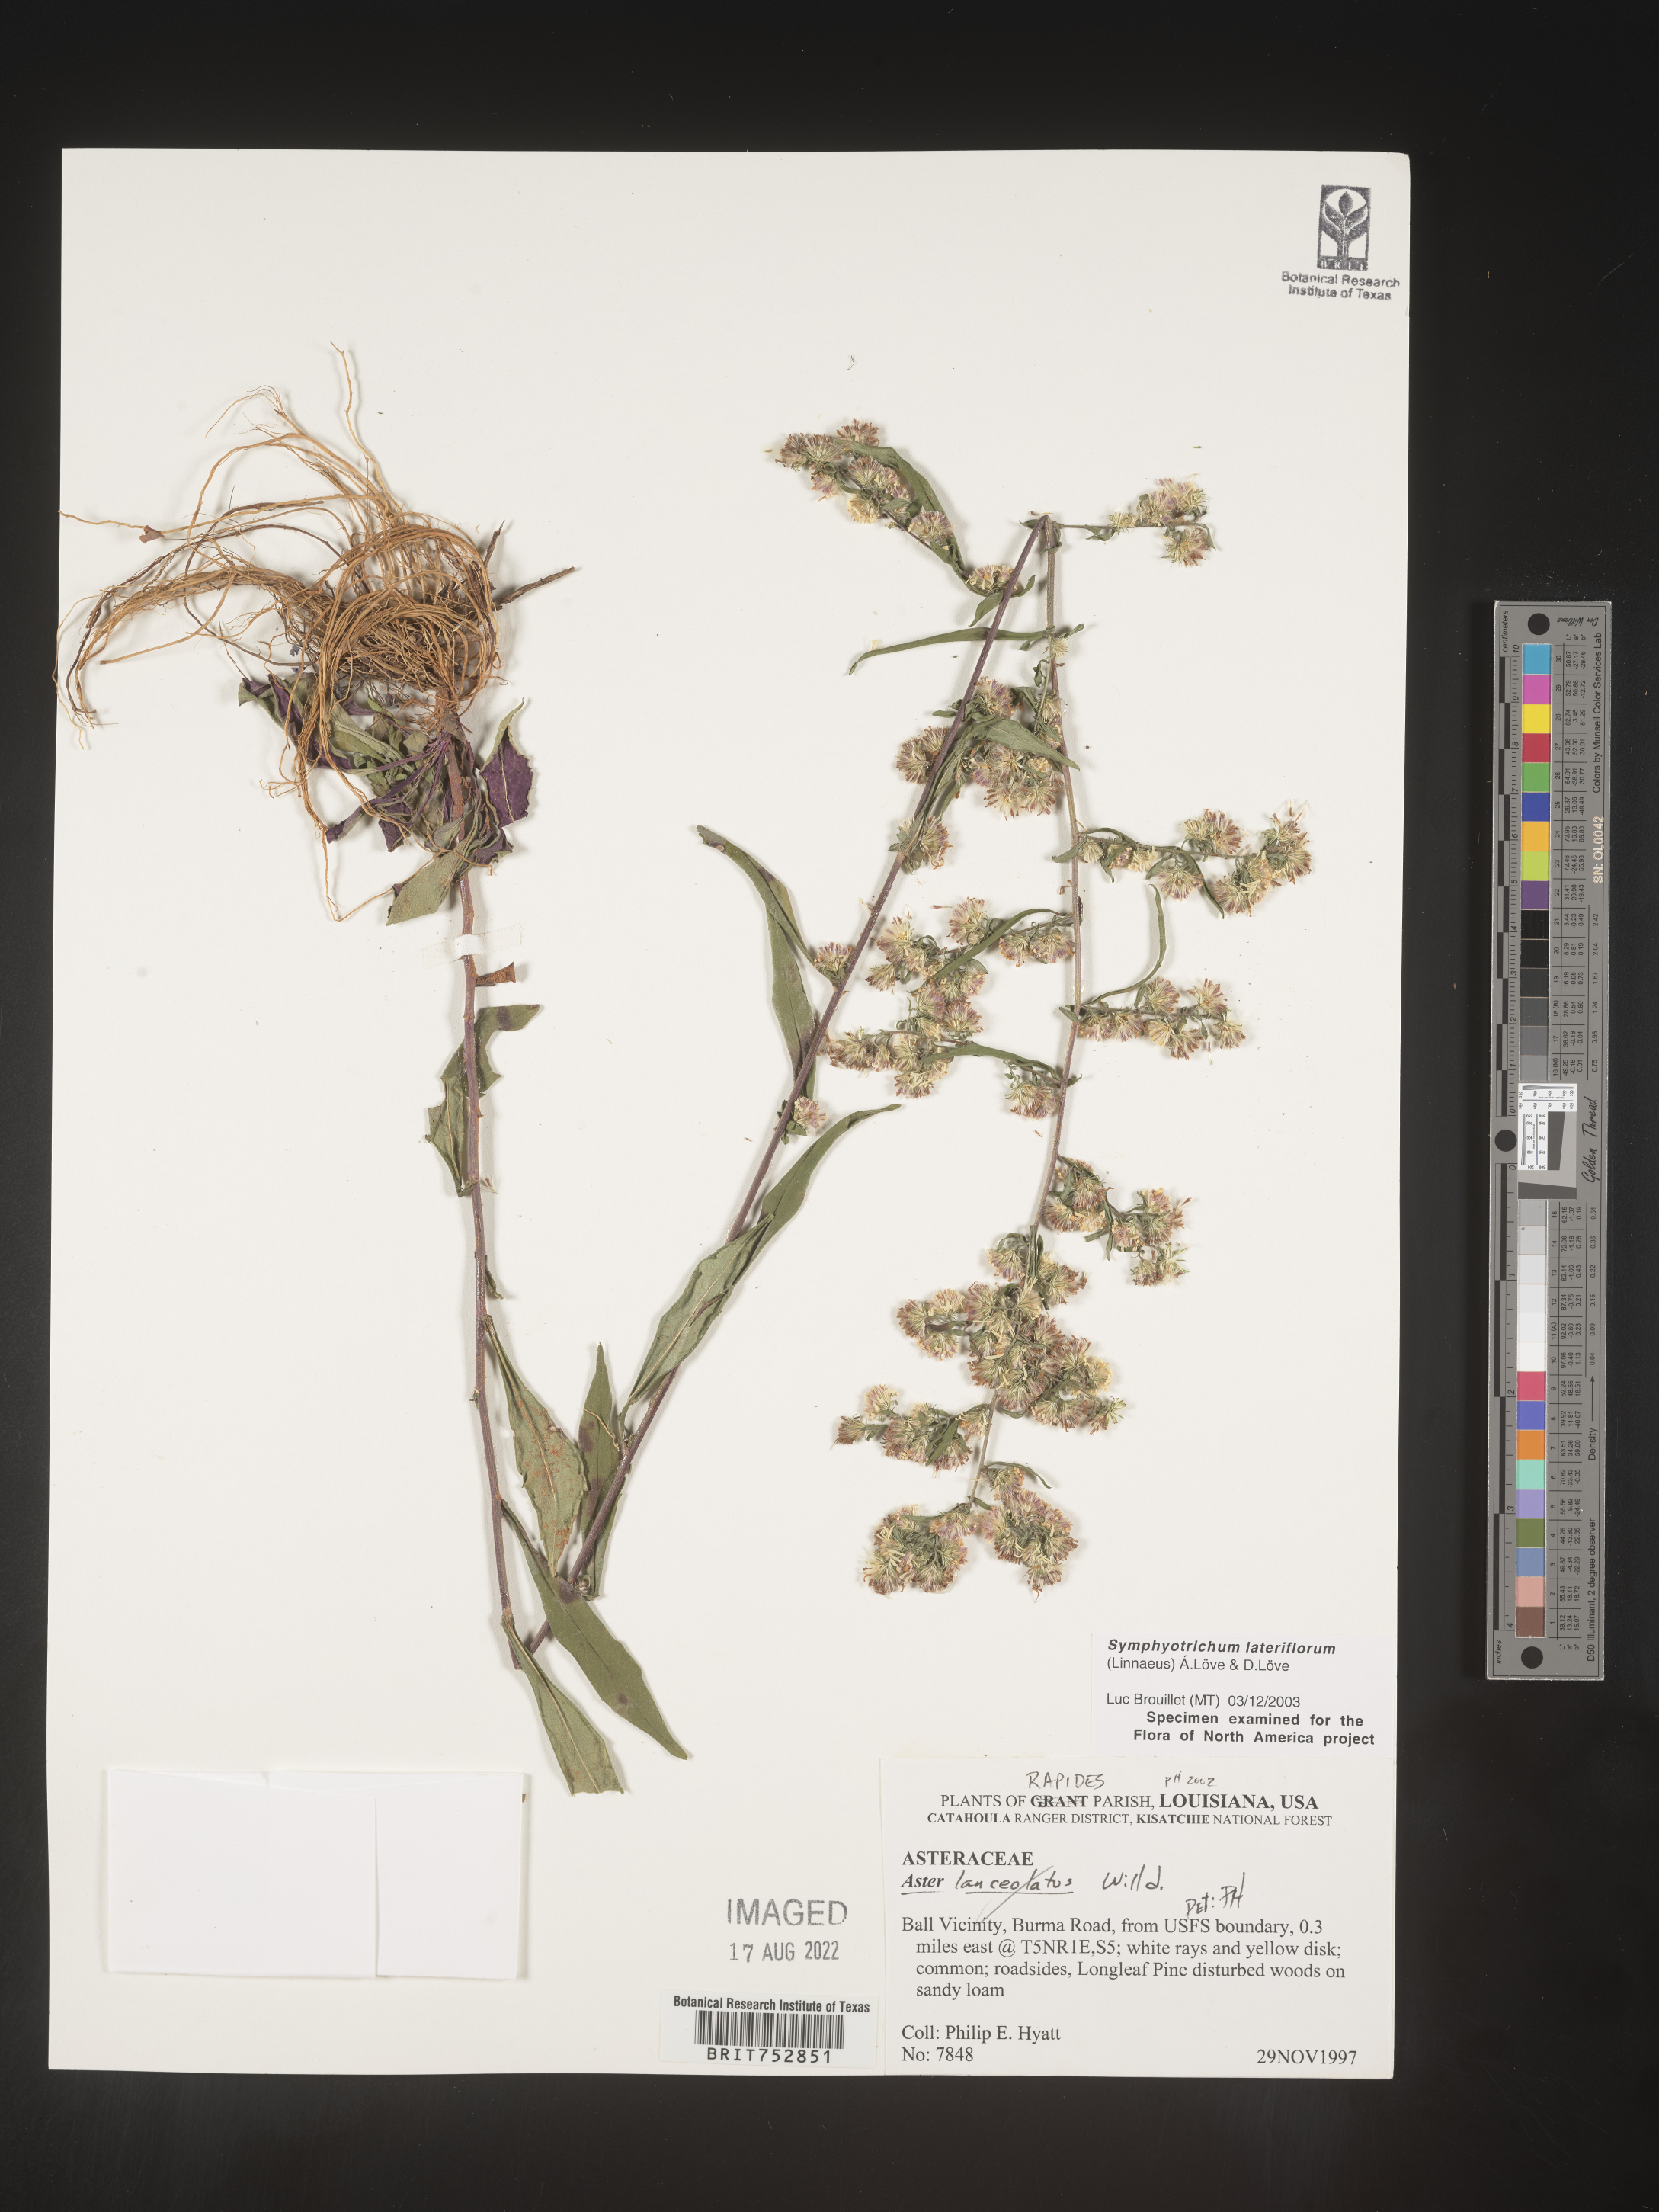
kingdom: Plantae
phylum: Tracheophyta
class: Magnoliopsida
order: Asterales
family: Asteraceae
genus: Symphyotrichum
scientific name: Symphyotrichum lateriflorum
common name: Calico aster
